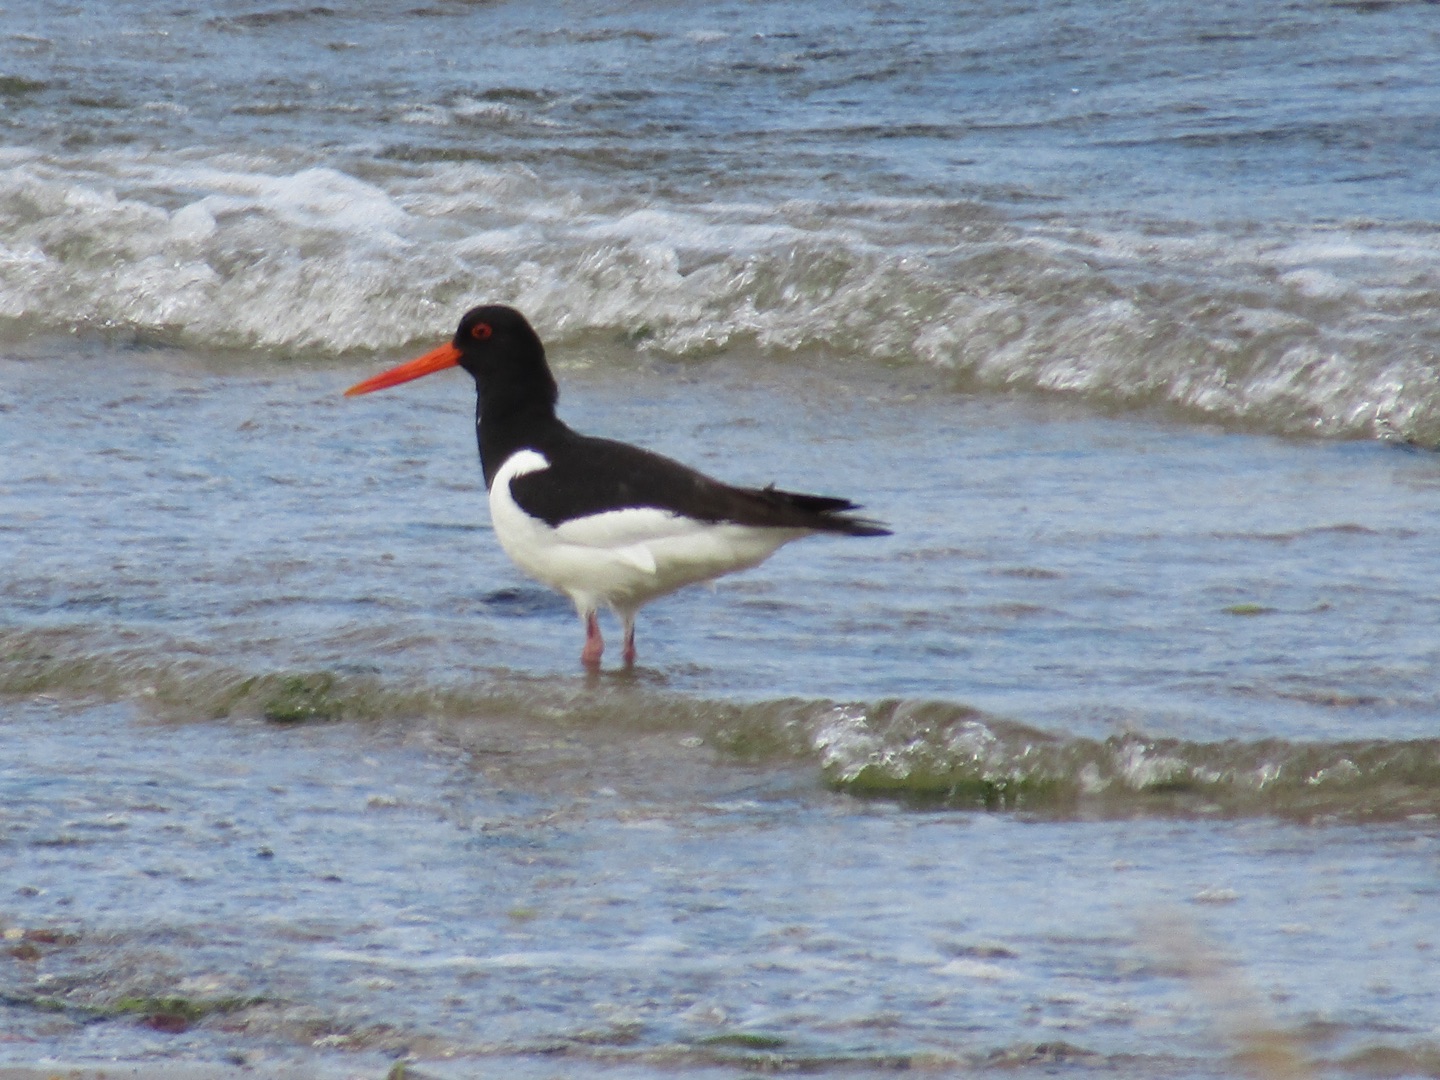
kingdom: Animalia
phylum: Chordata
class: Aves
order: Charadriiformes
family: Haematopodidae
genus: Haematopus
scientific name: Haematopus ostralegus
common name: Strandskade
